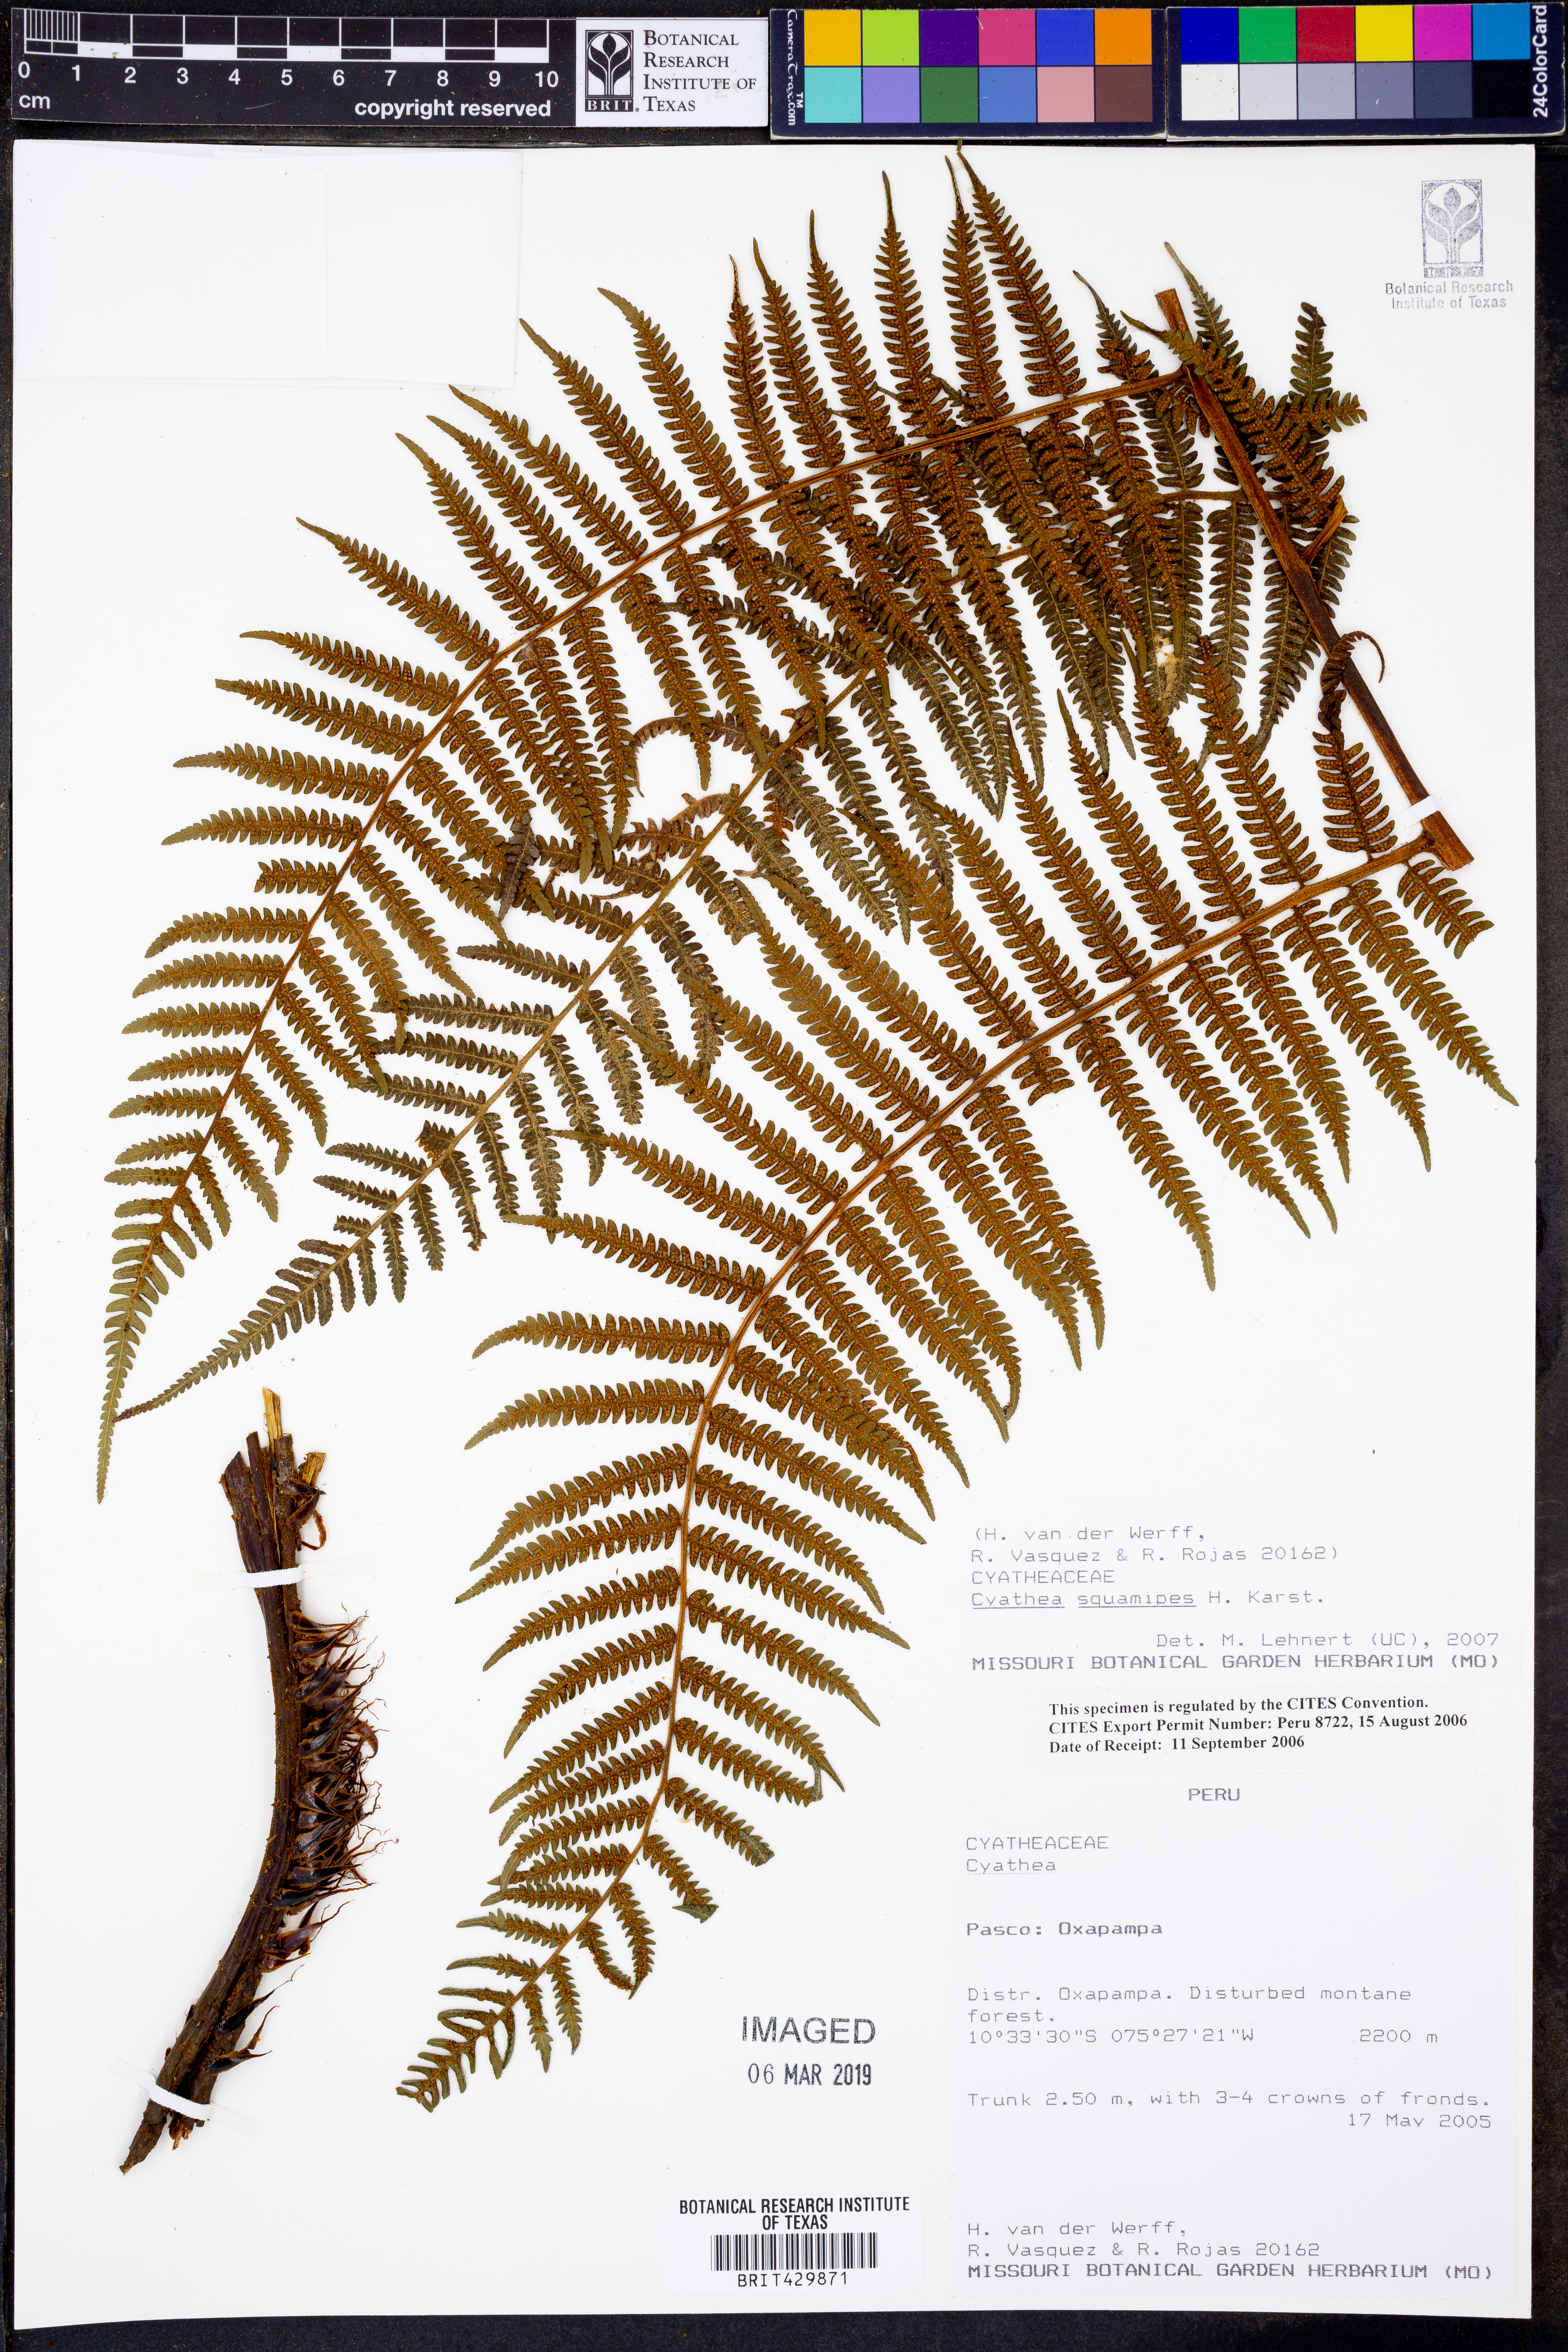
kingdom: Plantae
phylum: Tracheophyta
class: Polypodiopsida
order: Cyatheales
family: Cyatheaceae
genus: Cyathea
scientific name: Cyathea squamipes
